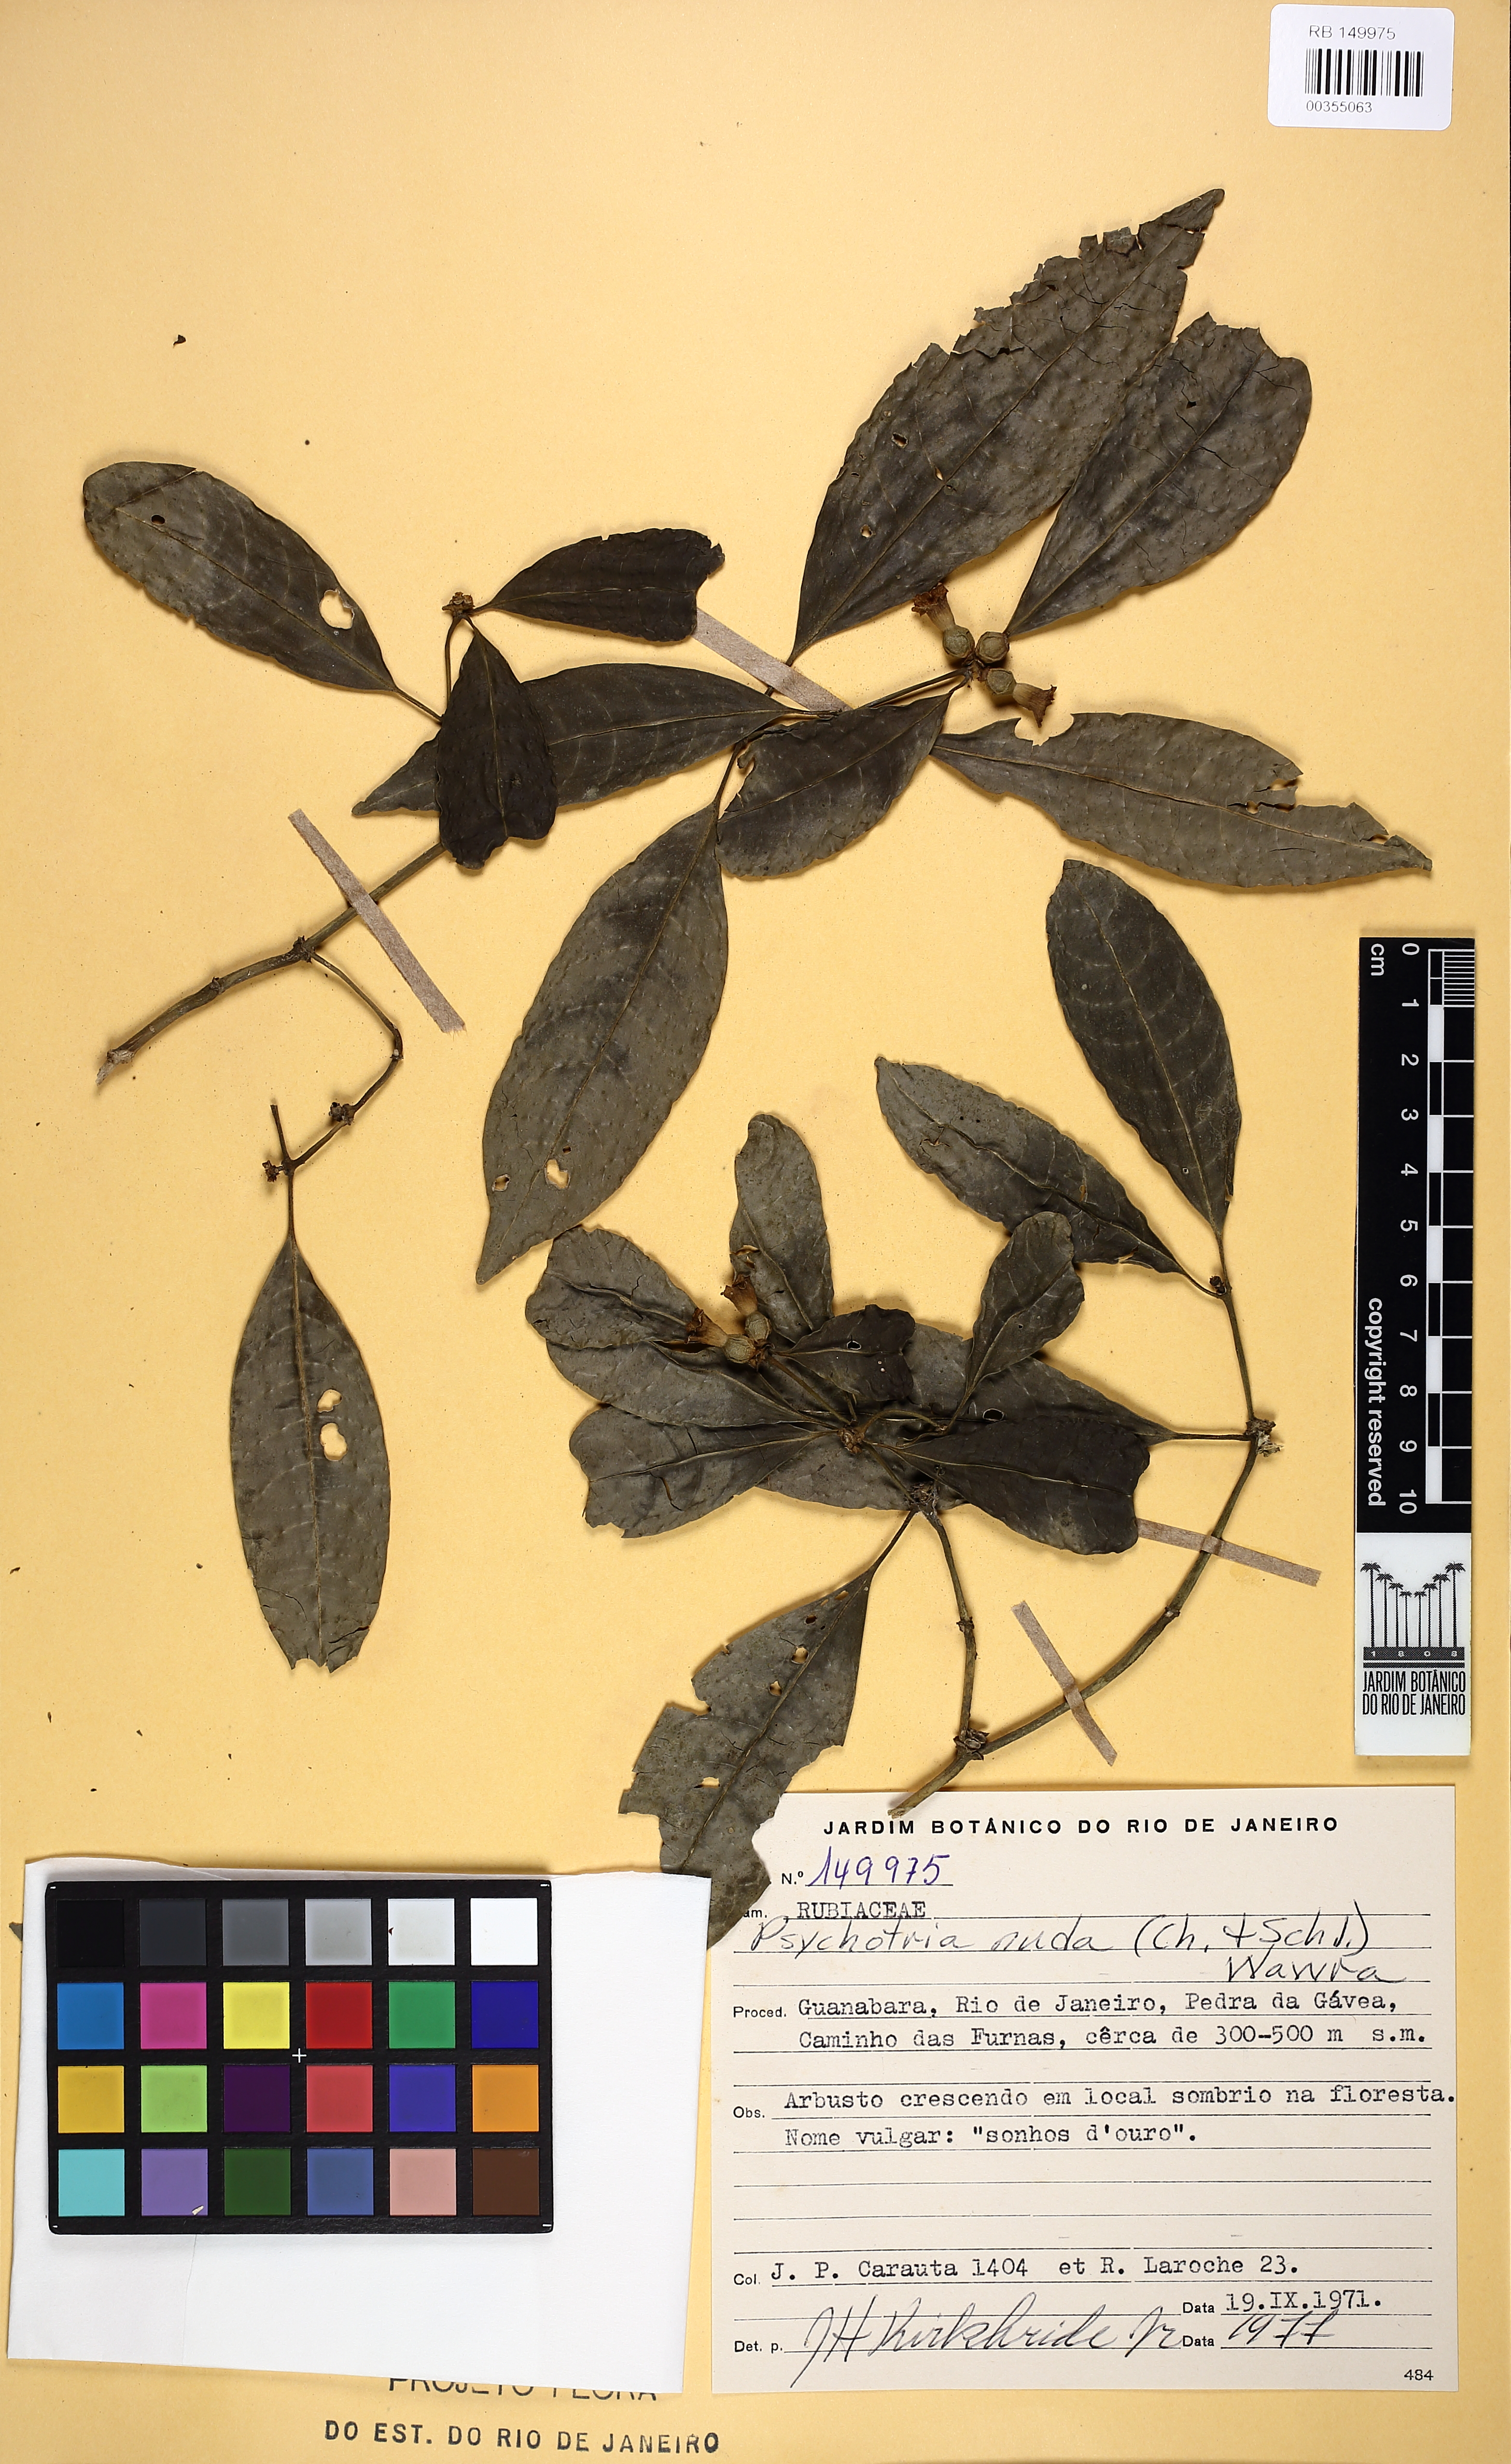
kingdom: Plantae
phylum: Tracheophyta
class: Magnoliopsida
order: Gentianales
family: Rubiaceae
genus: Psychotria
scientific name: Psychotria nuda
